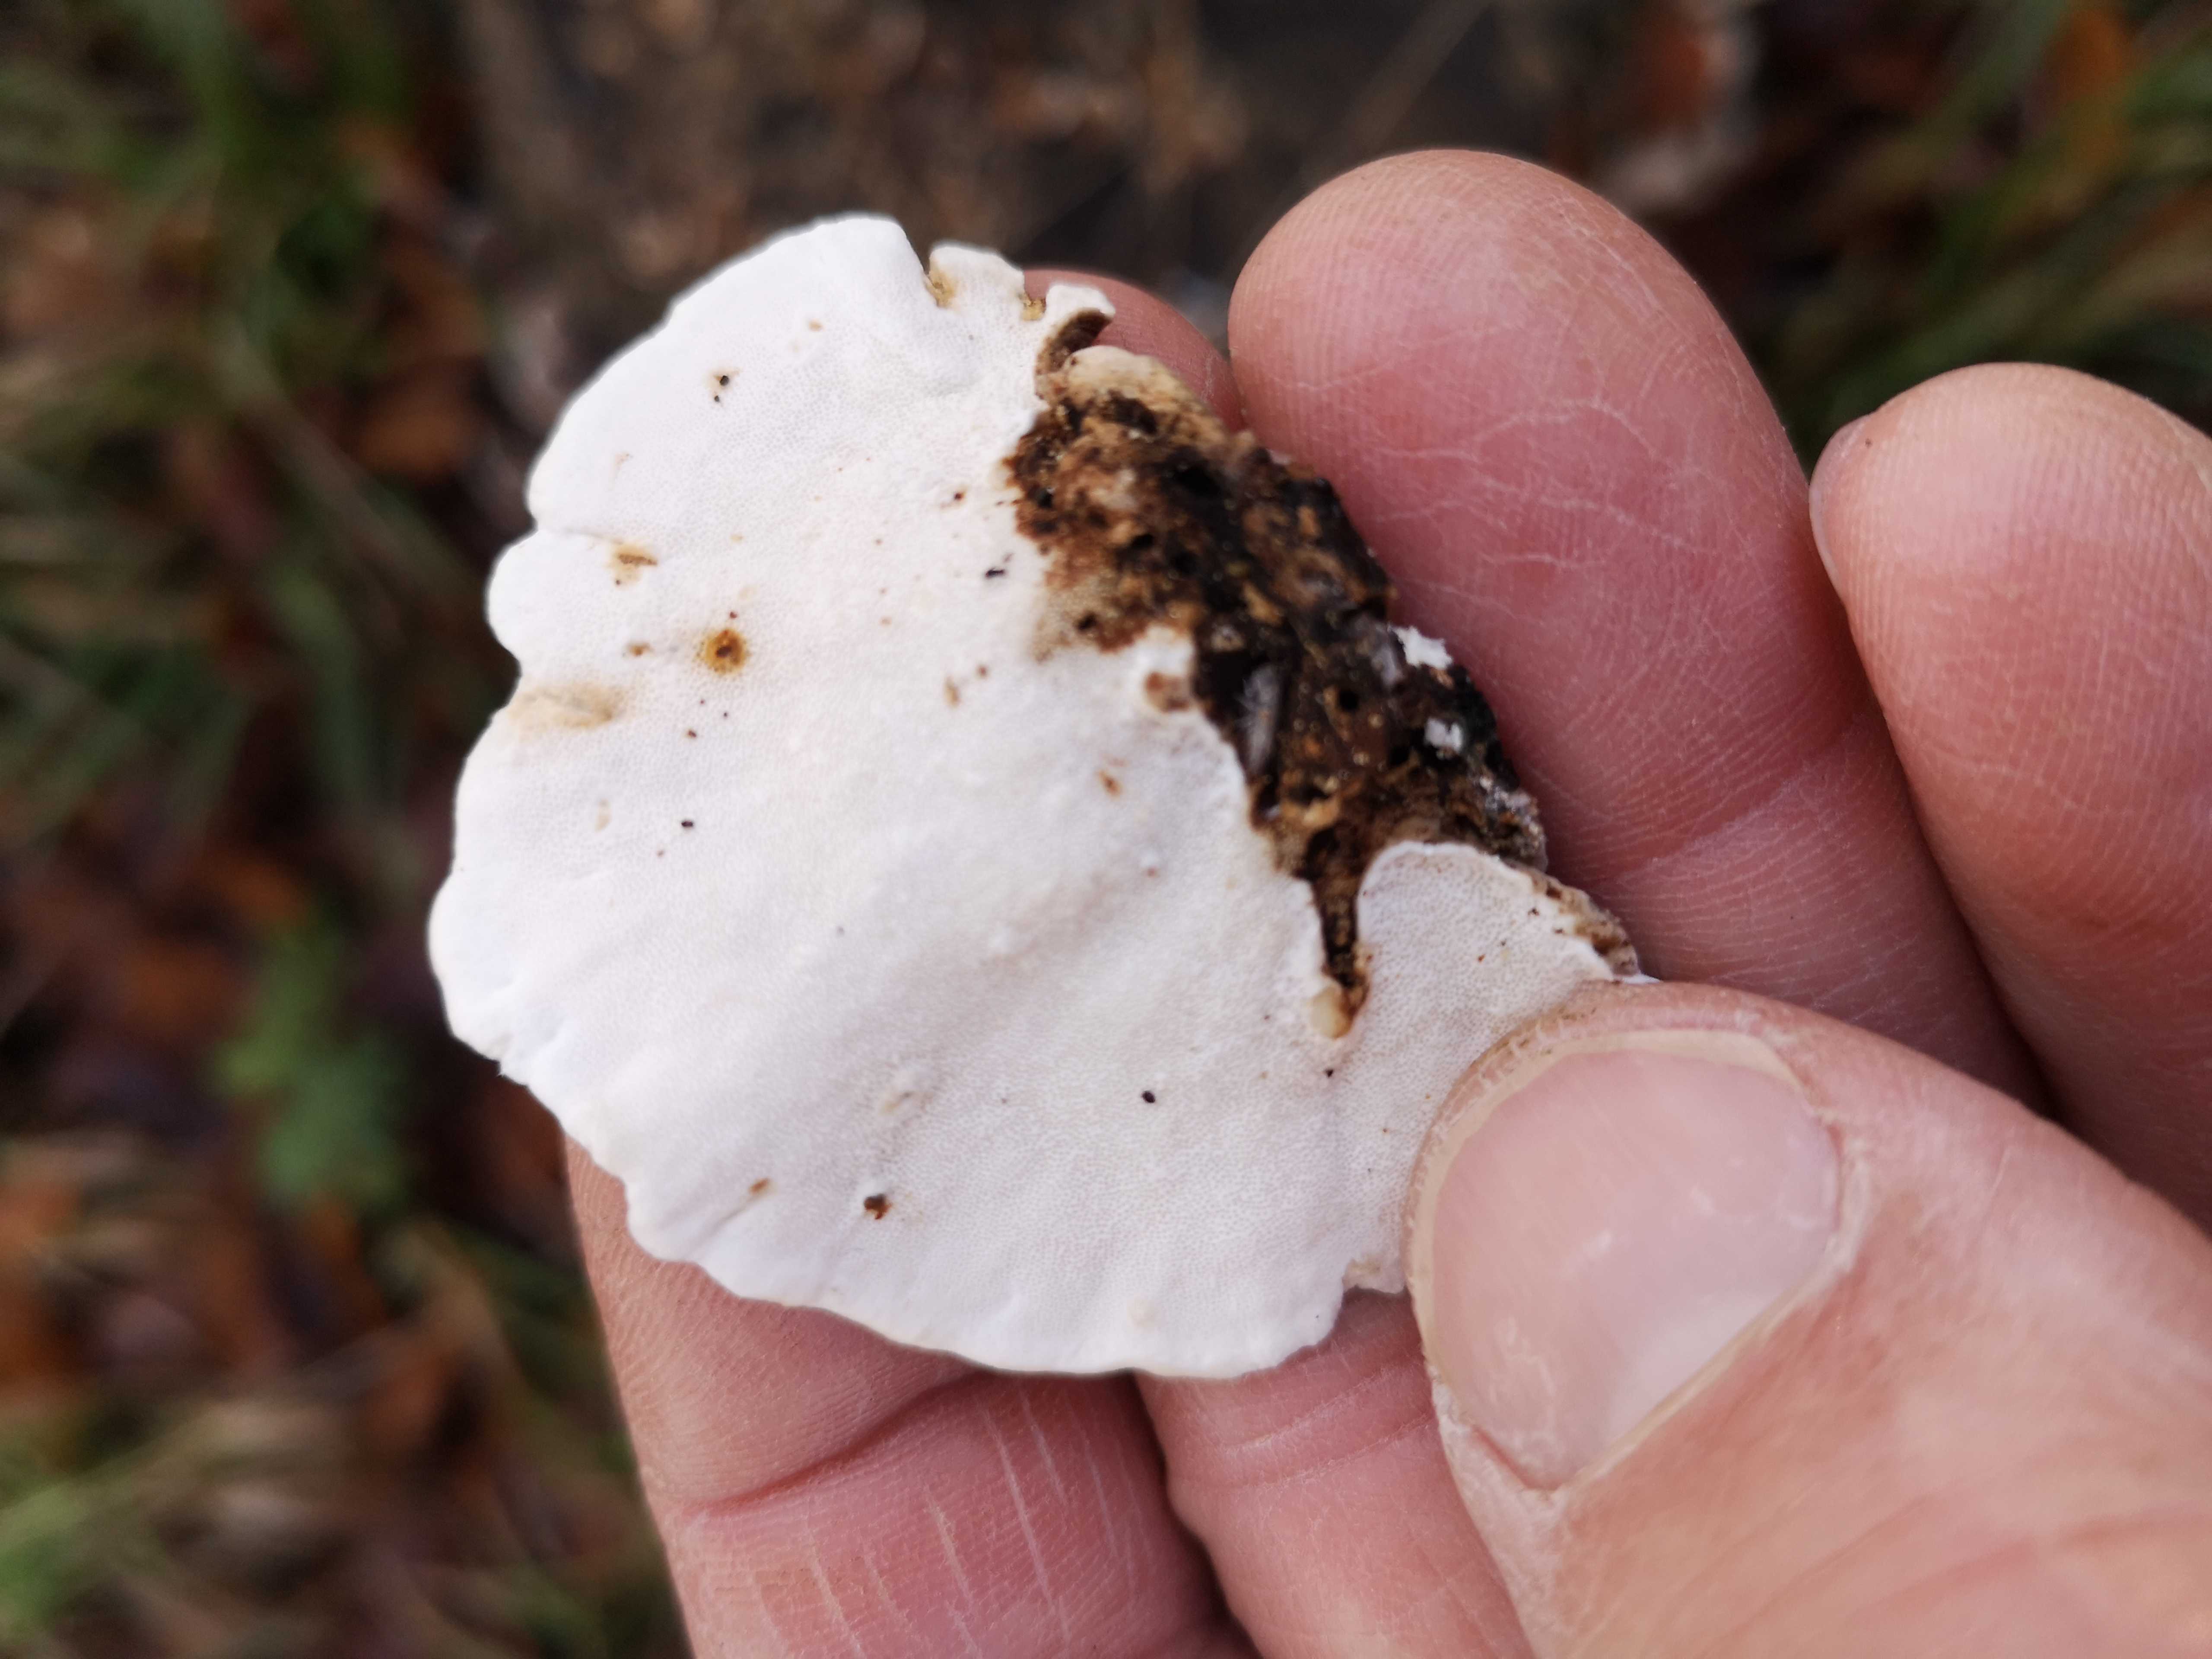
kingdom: Fungi
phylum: Basidiomycota
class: Agaricomycetes
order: Polyporales
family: Polyporaceae
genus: Trametes
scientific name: Trametes versicolor
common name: broget læderporesvamp
